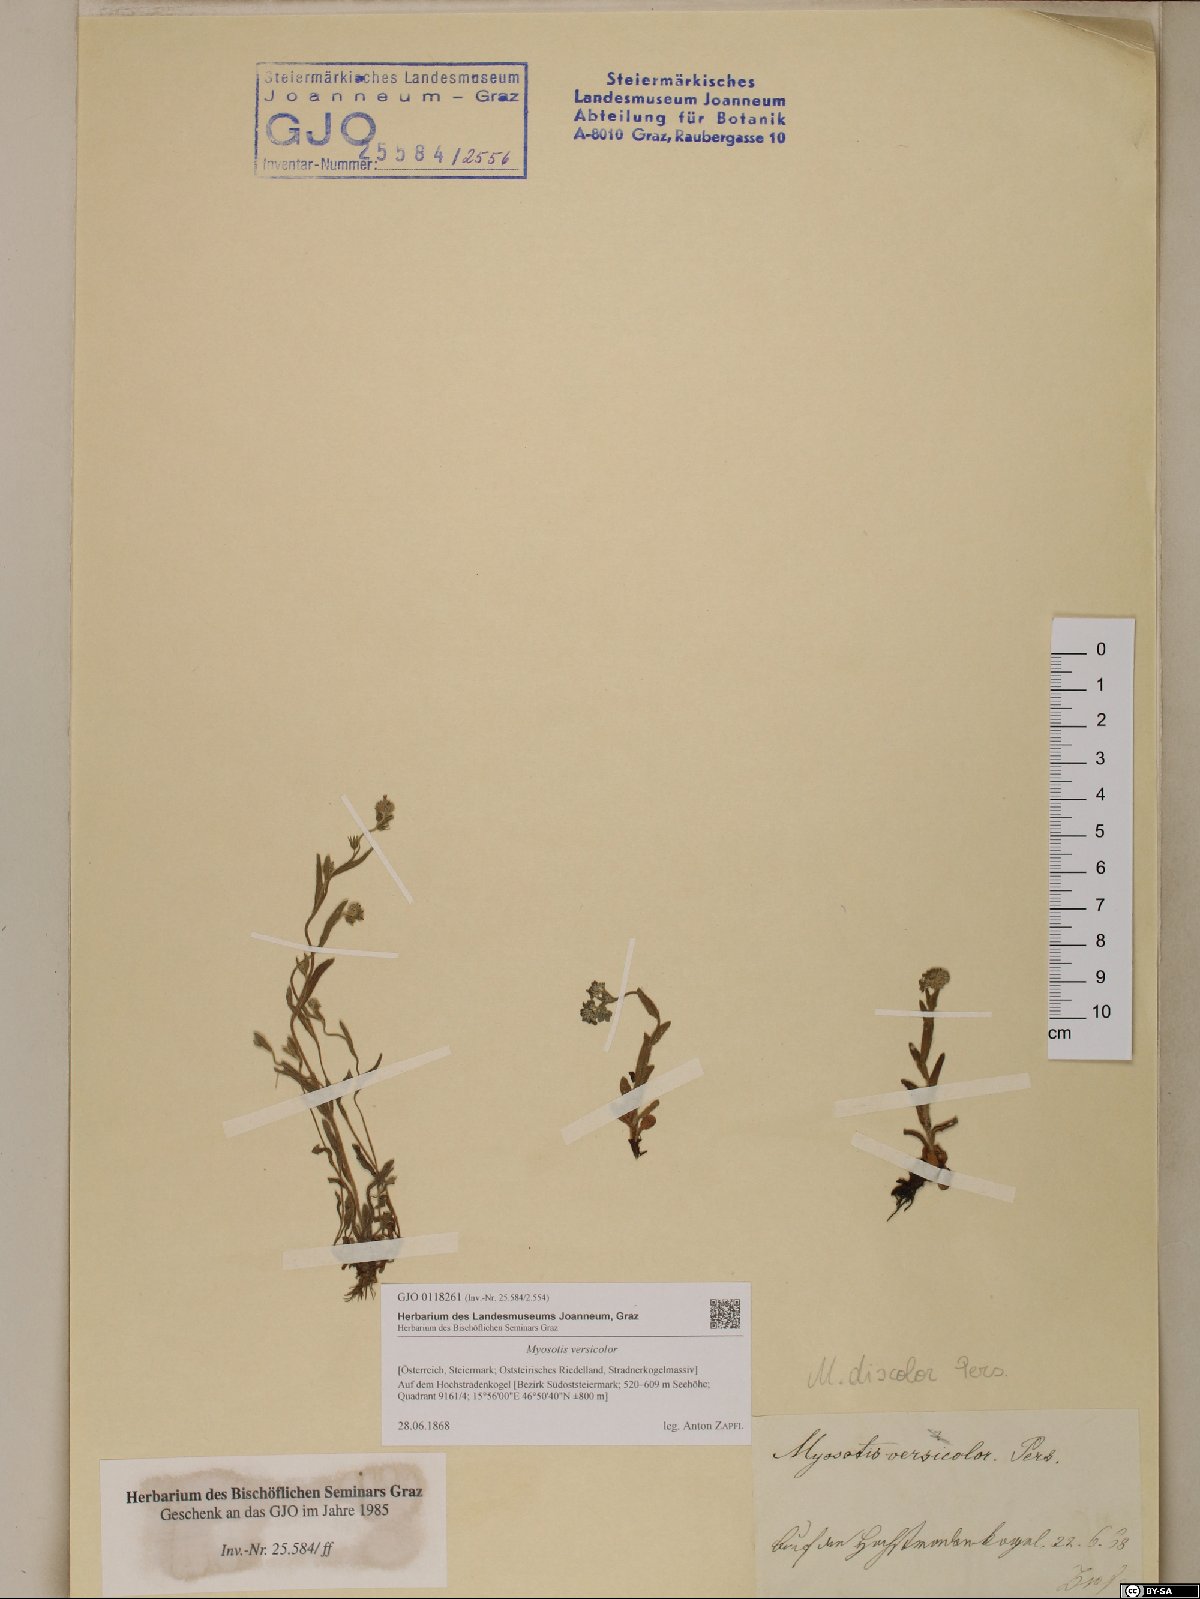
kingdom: Plantae
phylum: Tracheophyta
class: Magnoliopsida
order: Boraginales
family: Boraginaceae
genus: Myosotis
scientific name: Myosotis discolor
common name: Changing forget-me-not
